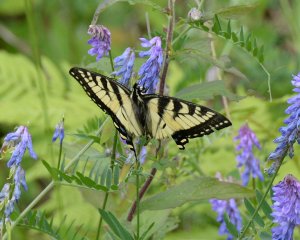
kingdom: Animalia
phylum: Arthropoda
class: Insecta
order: Lepidoptera
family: Papilionidae
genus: Pterourus
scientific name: Pterourus canadensis
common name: Canadian Tiger Swallowtail
